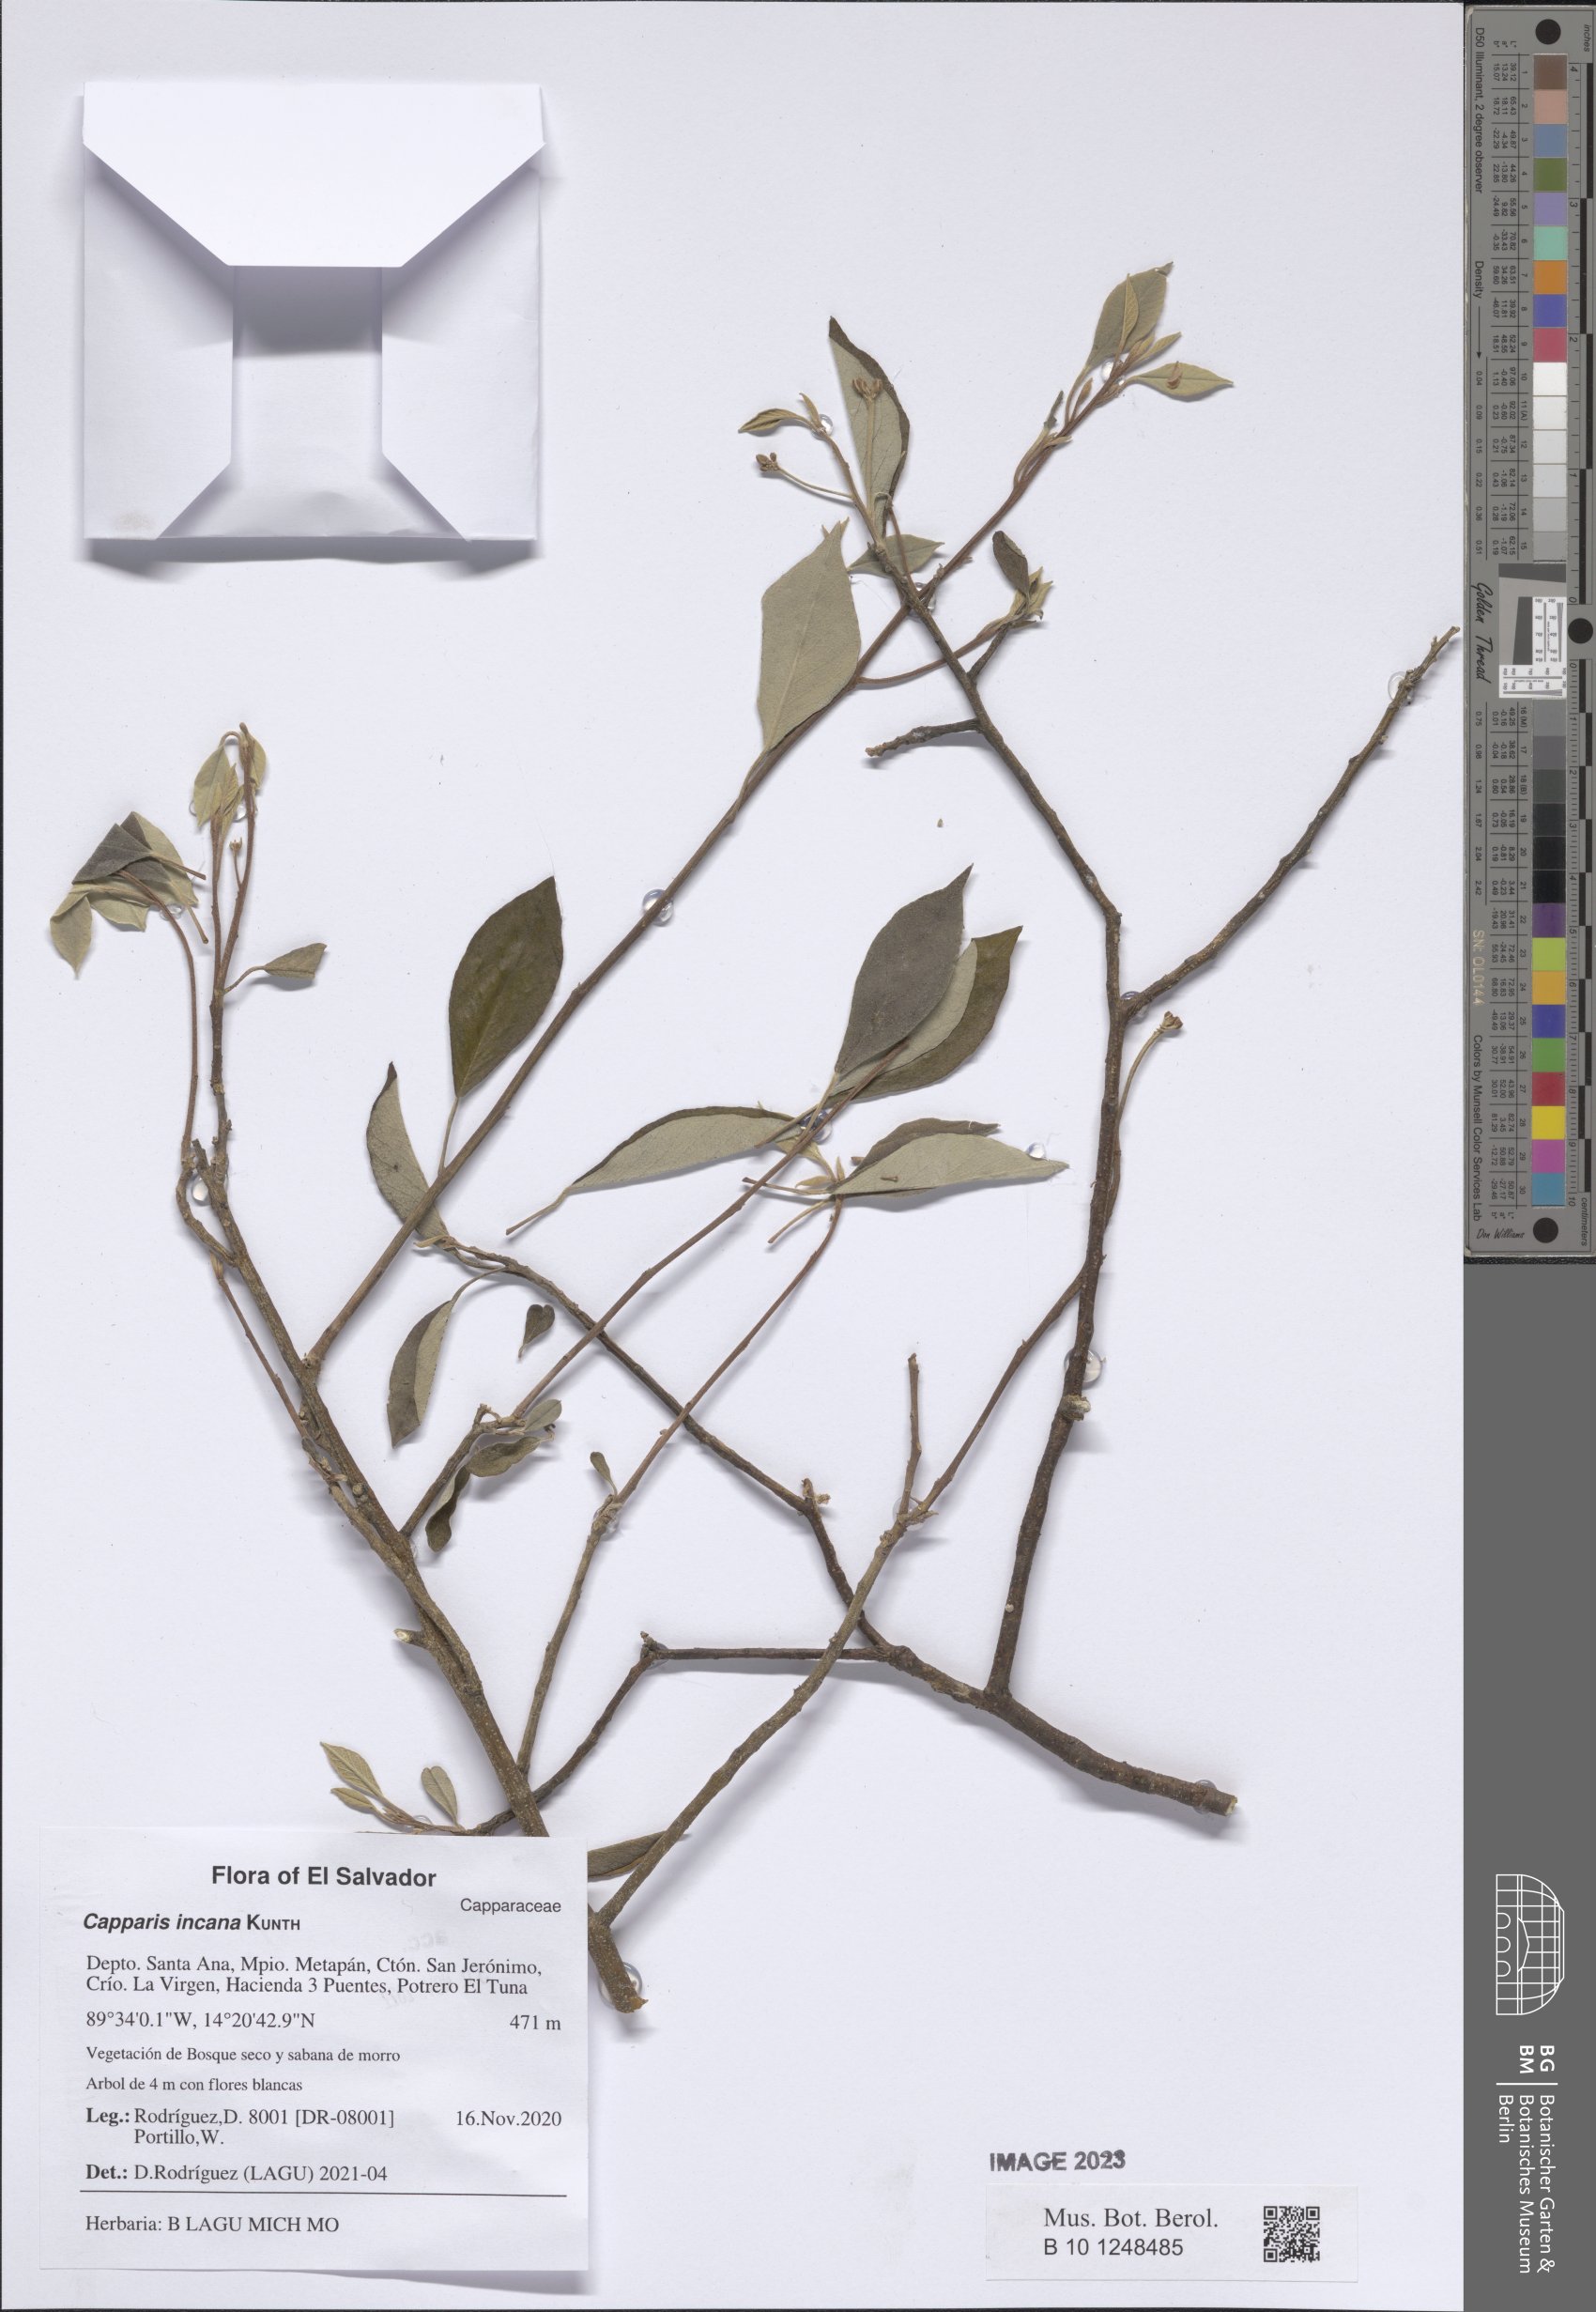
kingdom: Plantae
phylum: Tracheophyta
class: Magnoliopsida
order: Brassicales
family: Capparaceae
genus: Quadrella
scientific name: Quadrella incana
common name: Hoary caper
